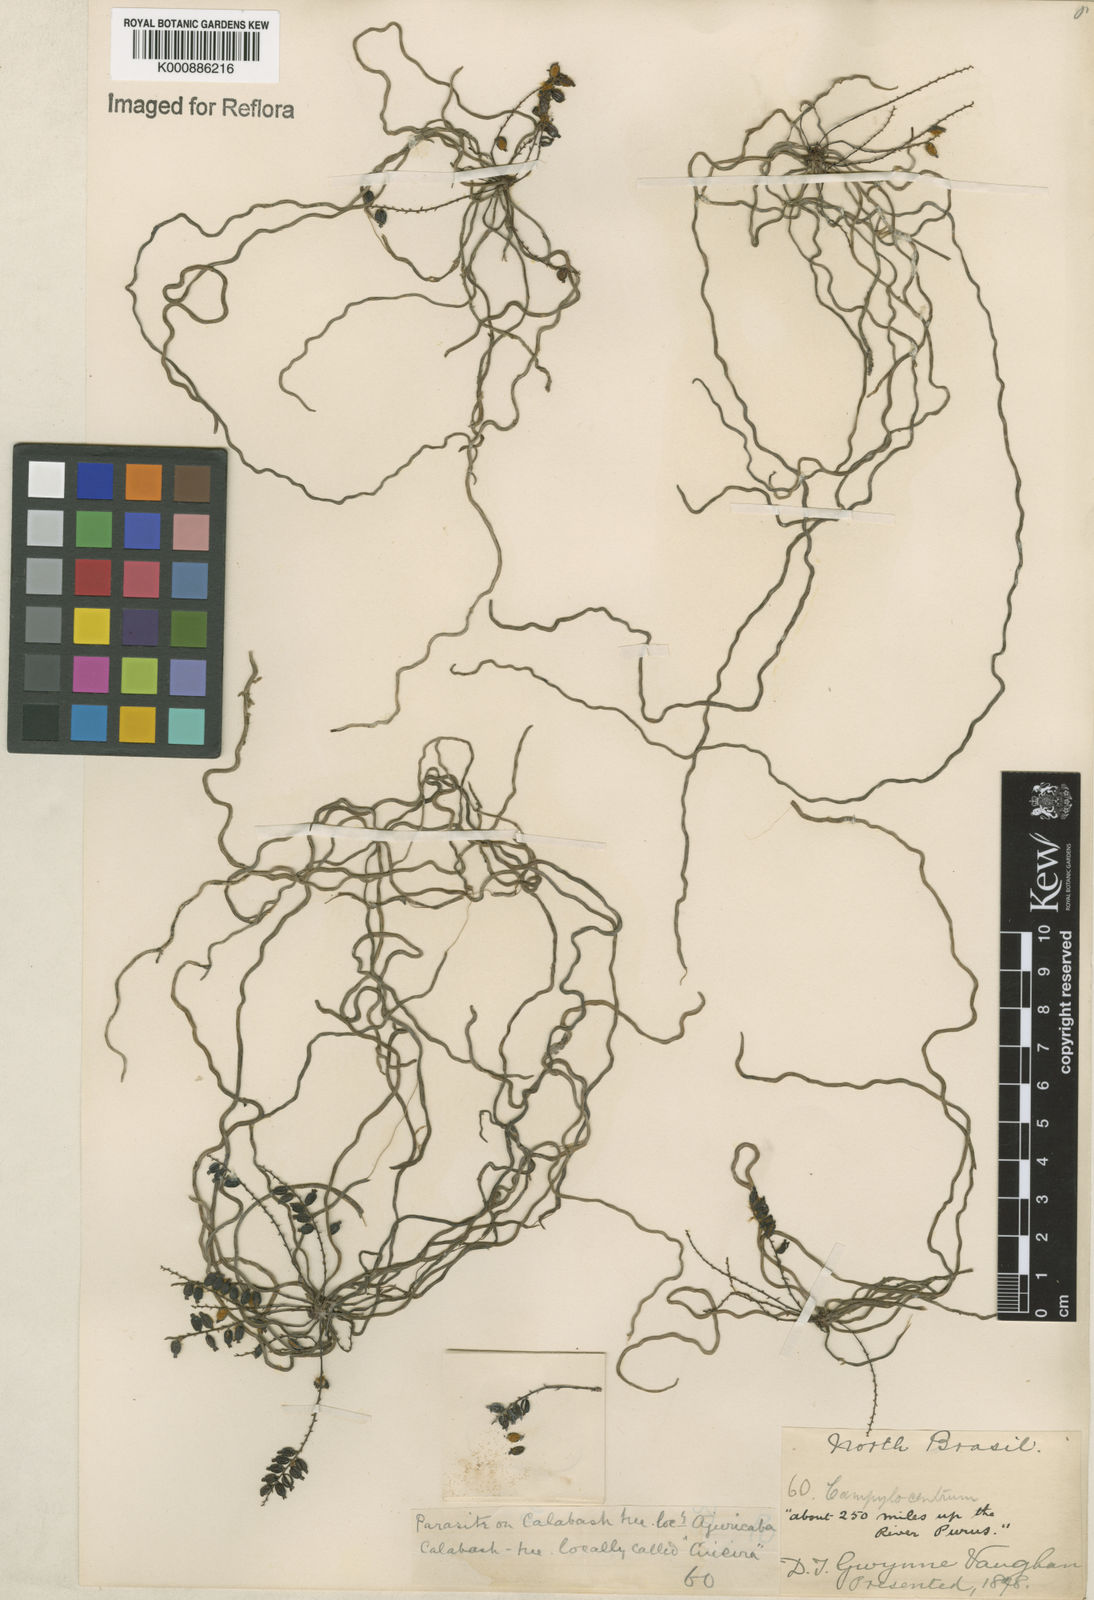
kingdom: Plantae
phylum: Tracheophyta
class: Liliopsida
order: Asparagales
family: Orchidaceae
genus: Campylocentrum
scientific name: Campylocentrum grisebachii
